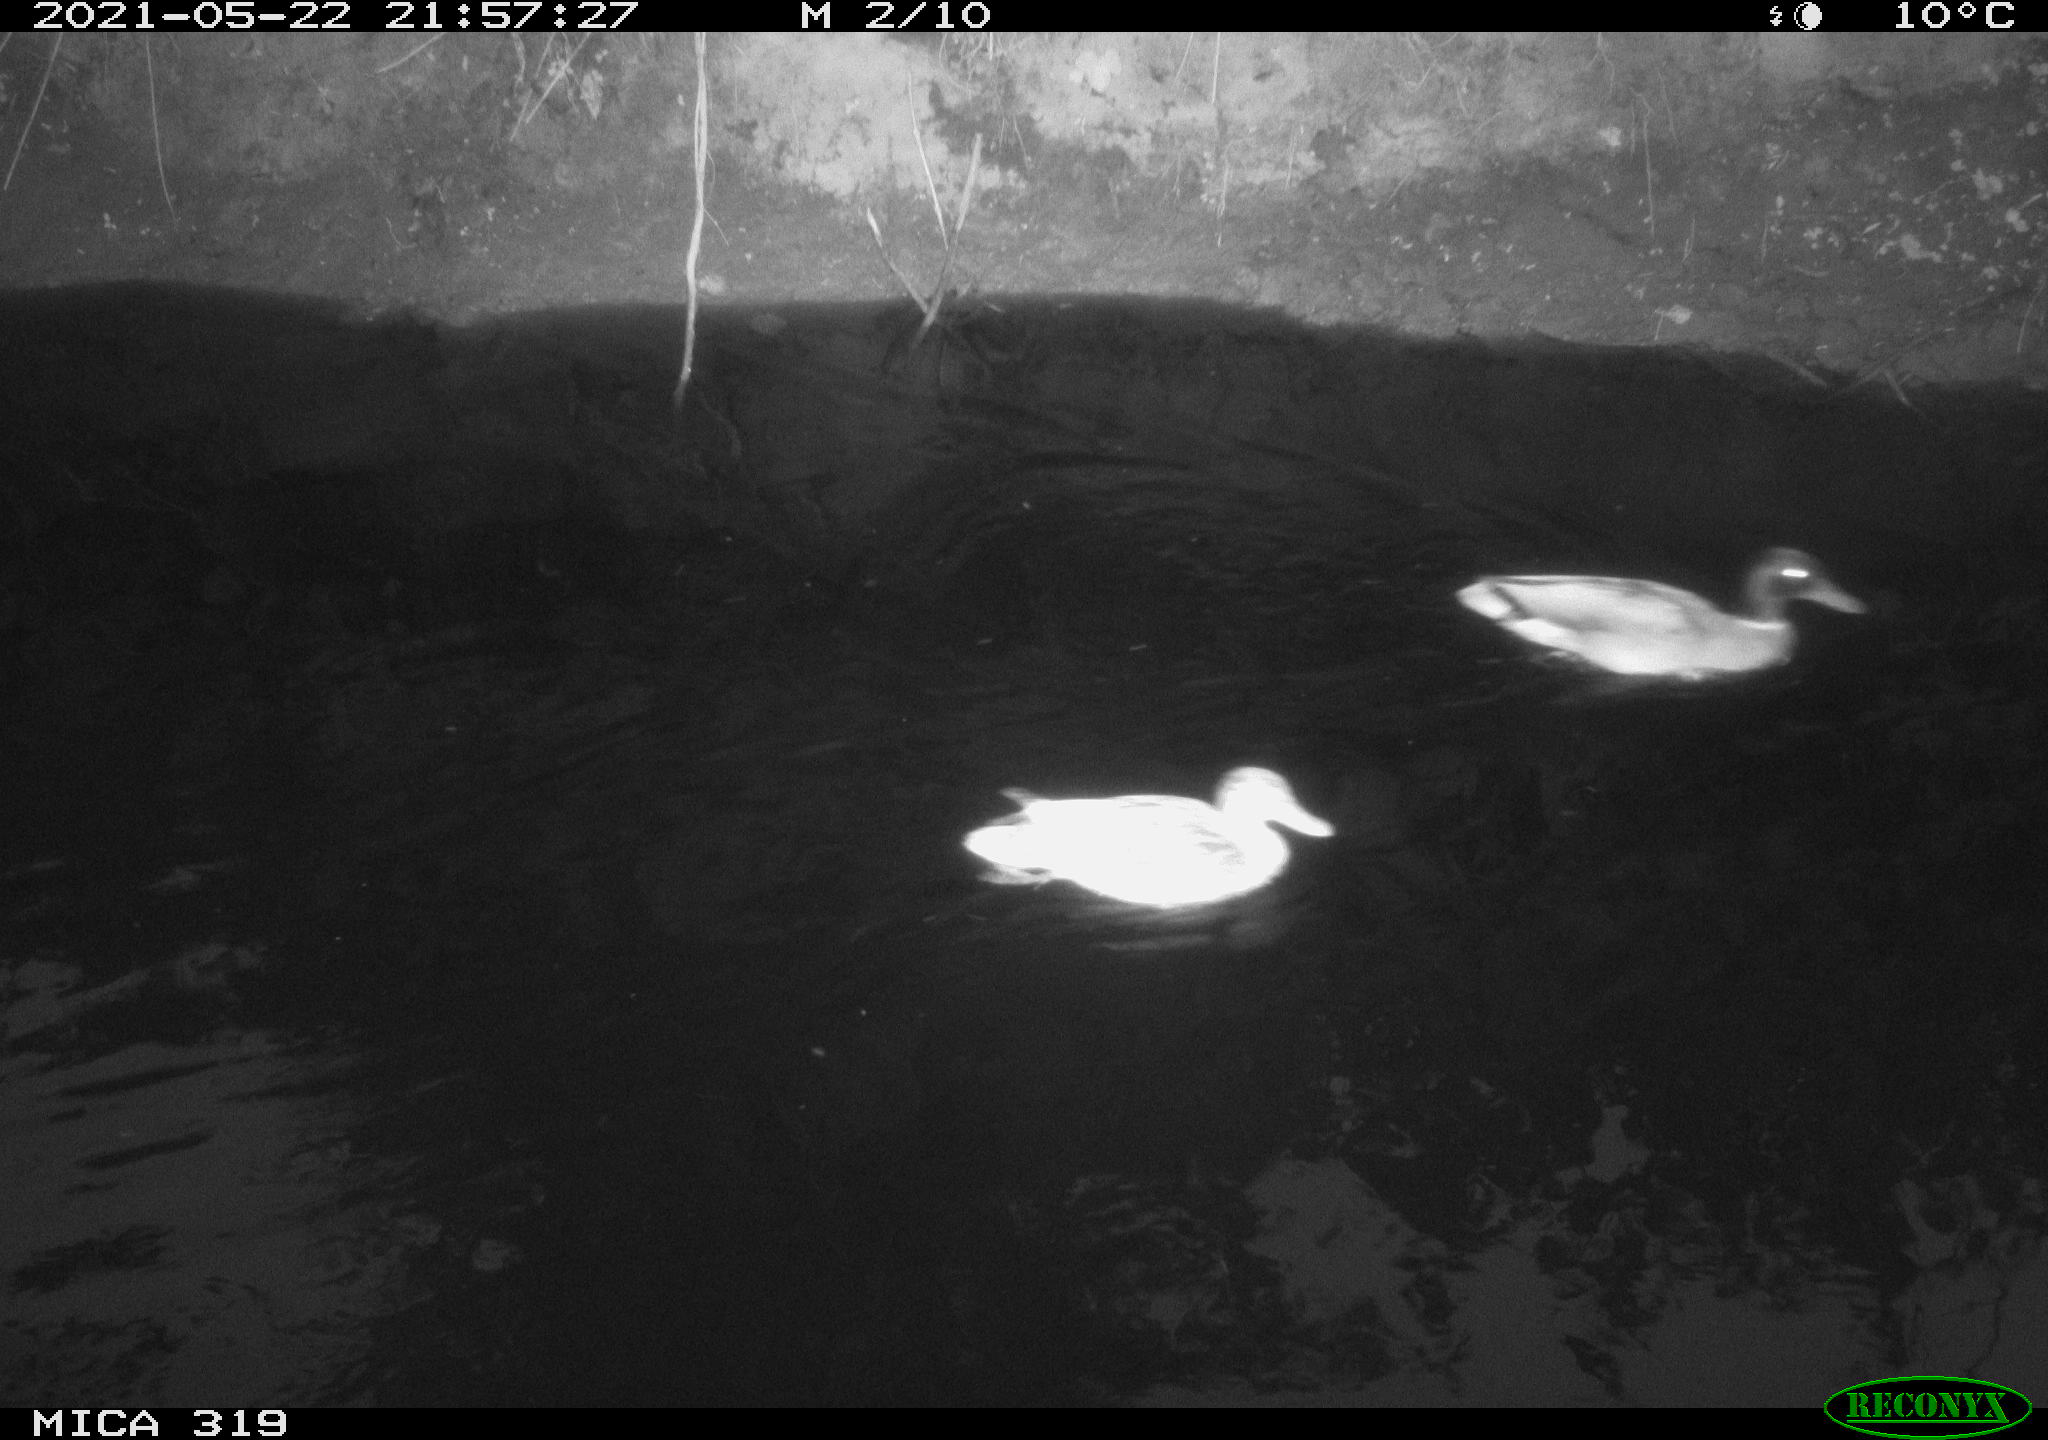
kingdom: Animalia
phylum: Chordata
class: Aves
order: Anseriformes
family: Anatidae
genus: Anas
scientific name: Anas platyrhynchos
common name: Mallard
